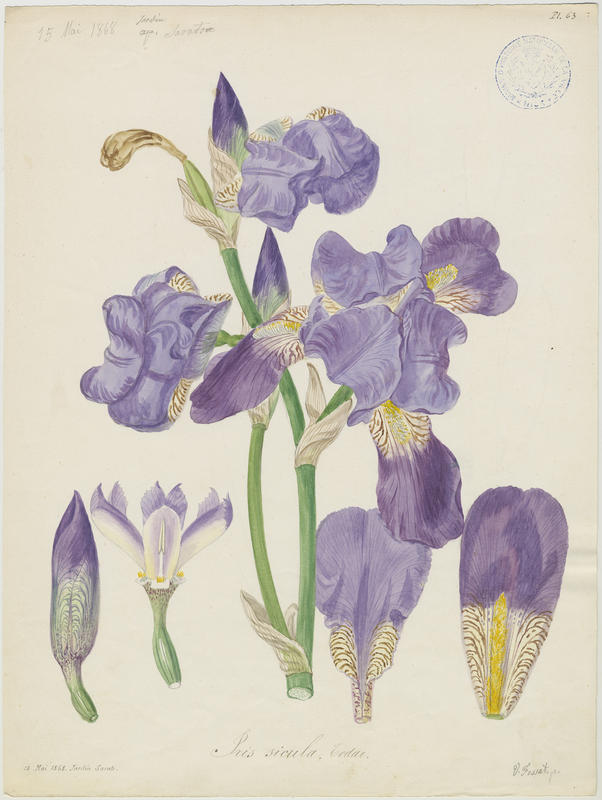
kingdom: Plantae
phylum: Tracheophyta
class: Liliopsida
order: Asparagales
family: Iridaceae
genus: Iris
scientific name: Iris pallida
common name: Sweet iris
